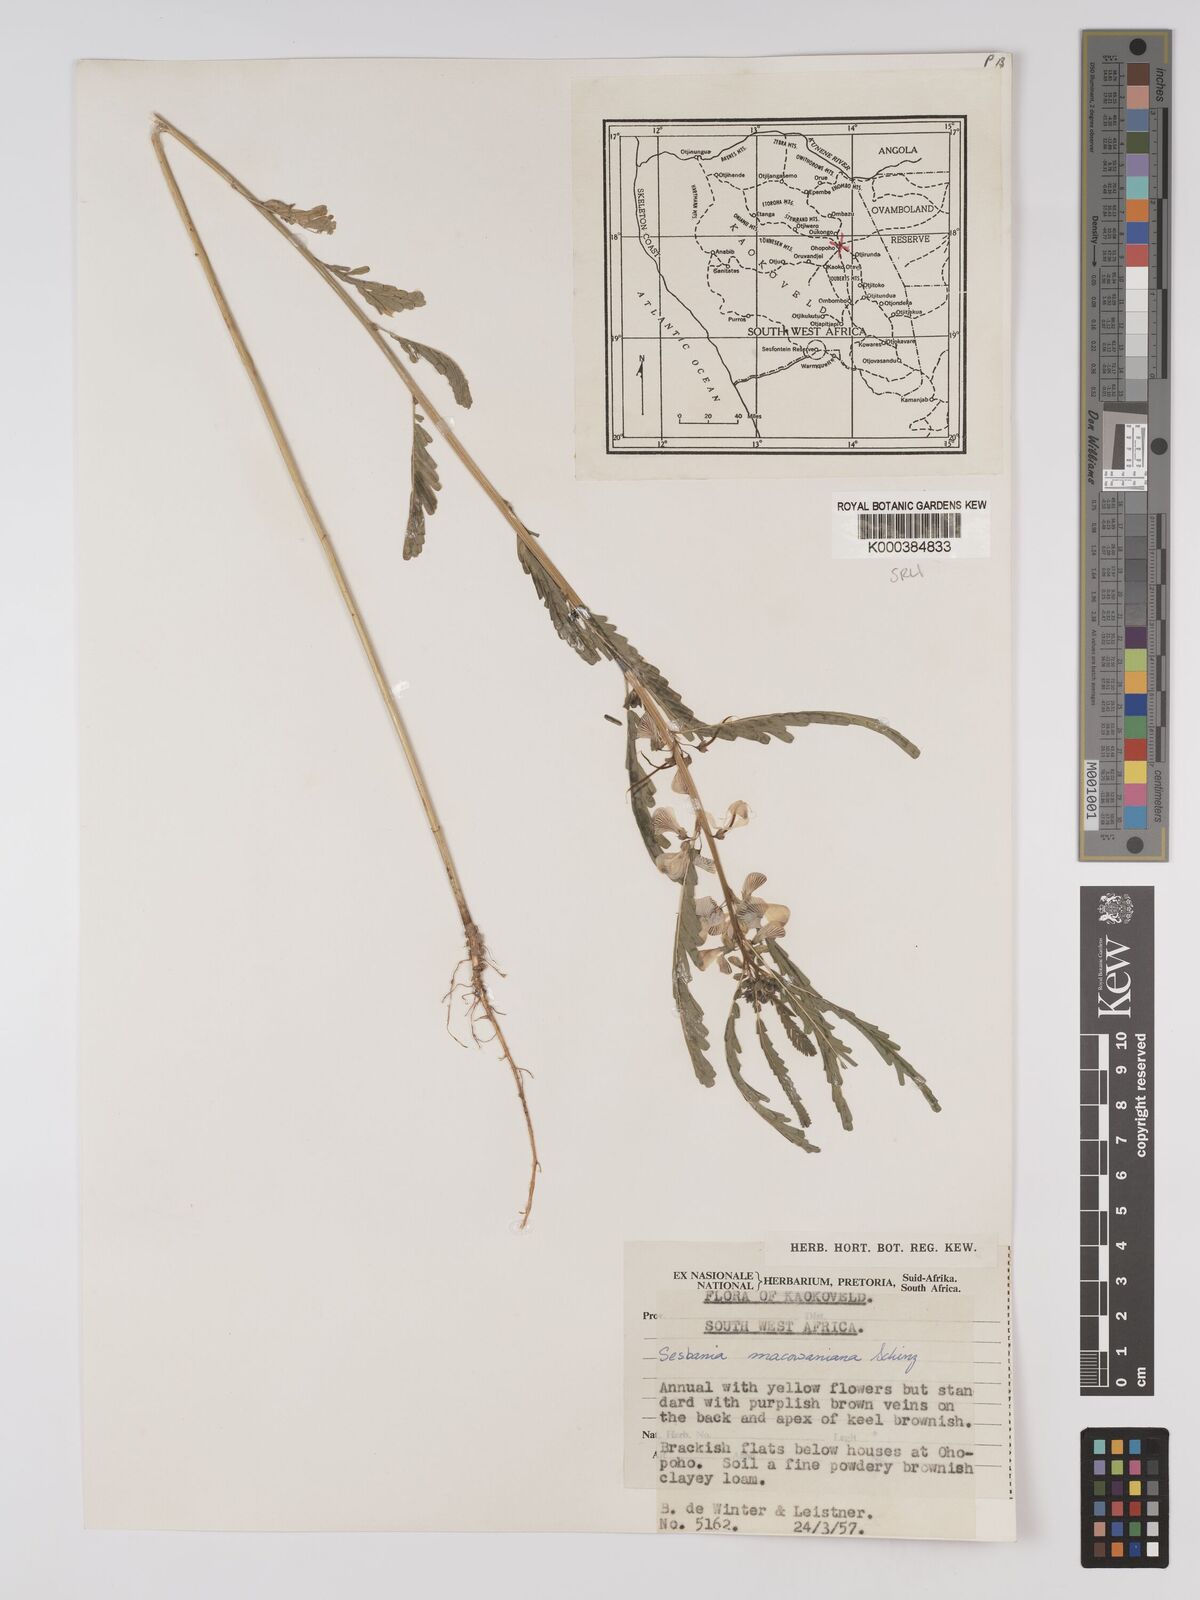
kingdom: Plantae
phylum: Tracheophyta
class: Magnoliopsida
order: Fabales
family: Fabaceae
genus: Sesbania
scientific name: Sesbania macowaniana
